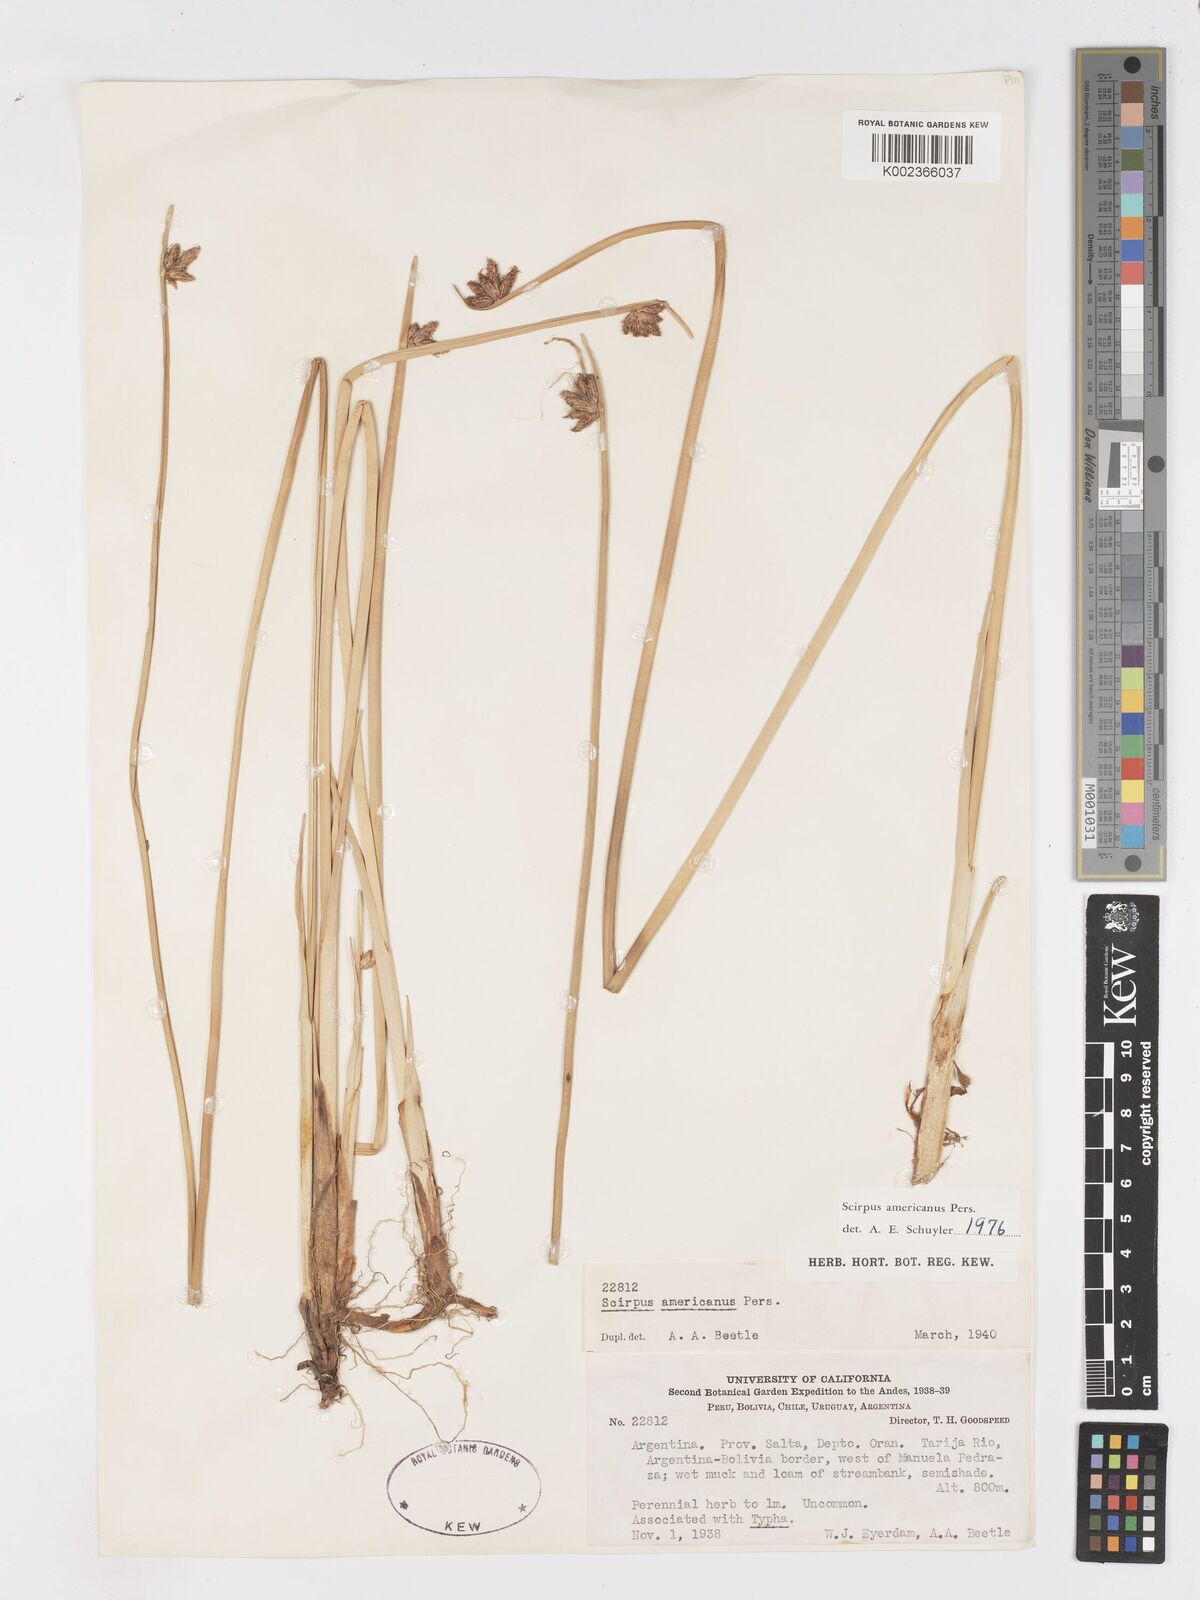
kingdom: Plantae
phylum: Tracheophyta
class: Liliopsida
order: Poales
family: Cyperaceae
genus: Schoenoplectus
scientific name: Schoenoplectus americanus
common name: American three-square bulrush
